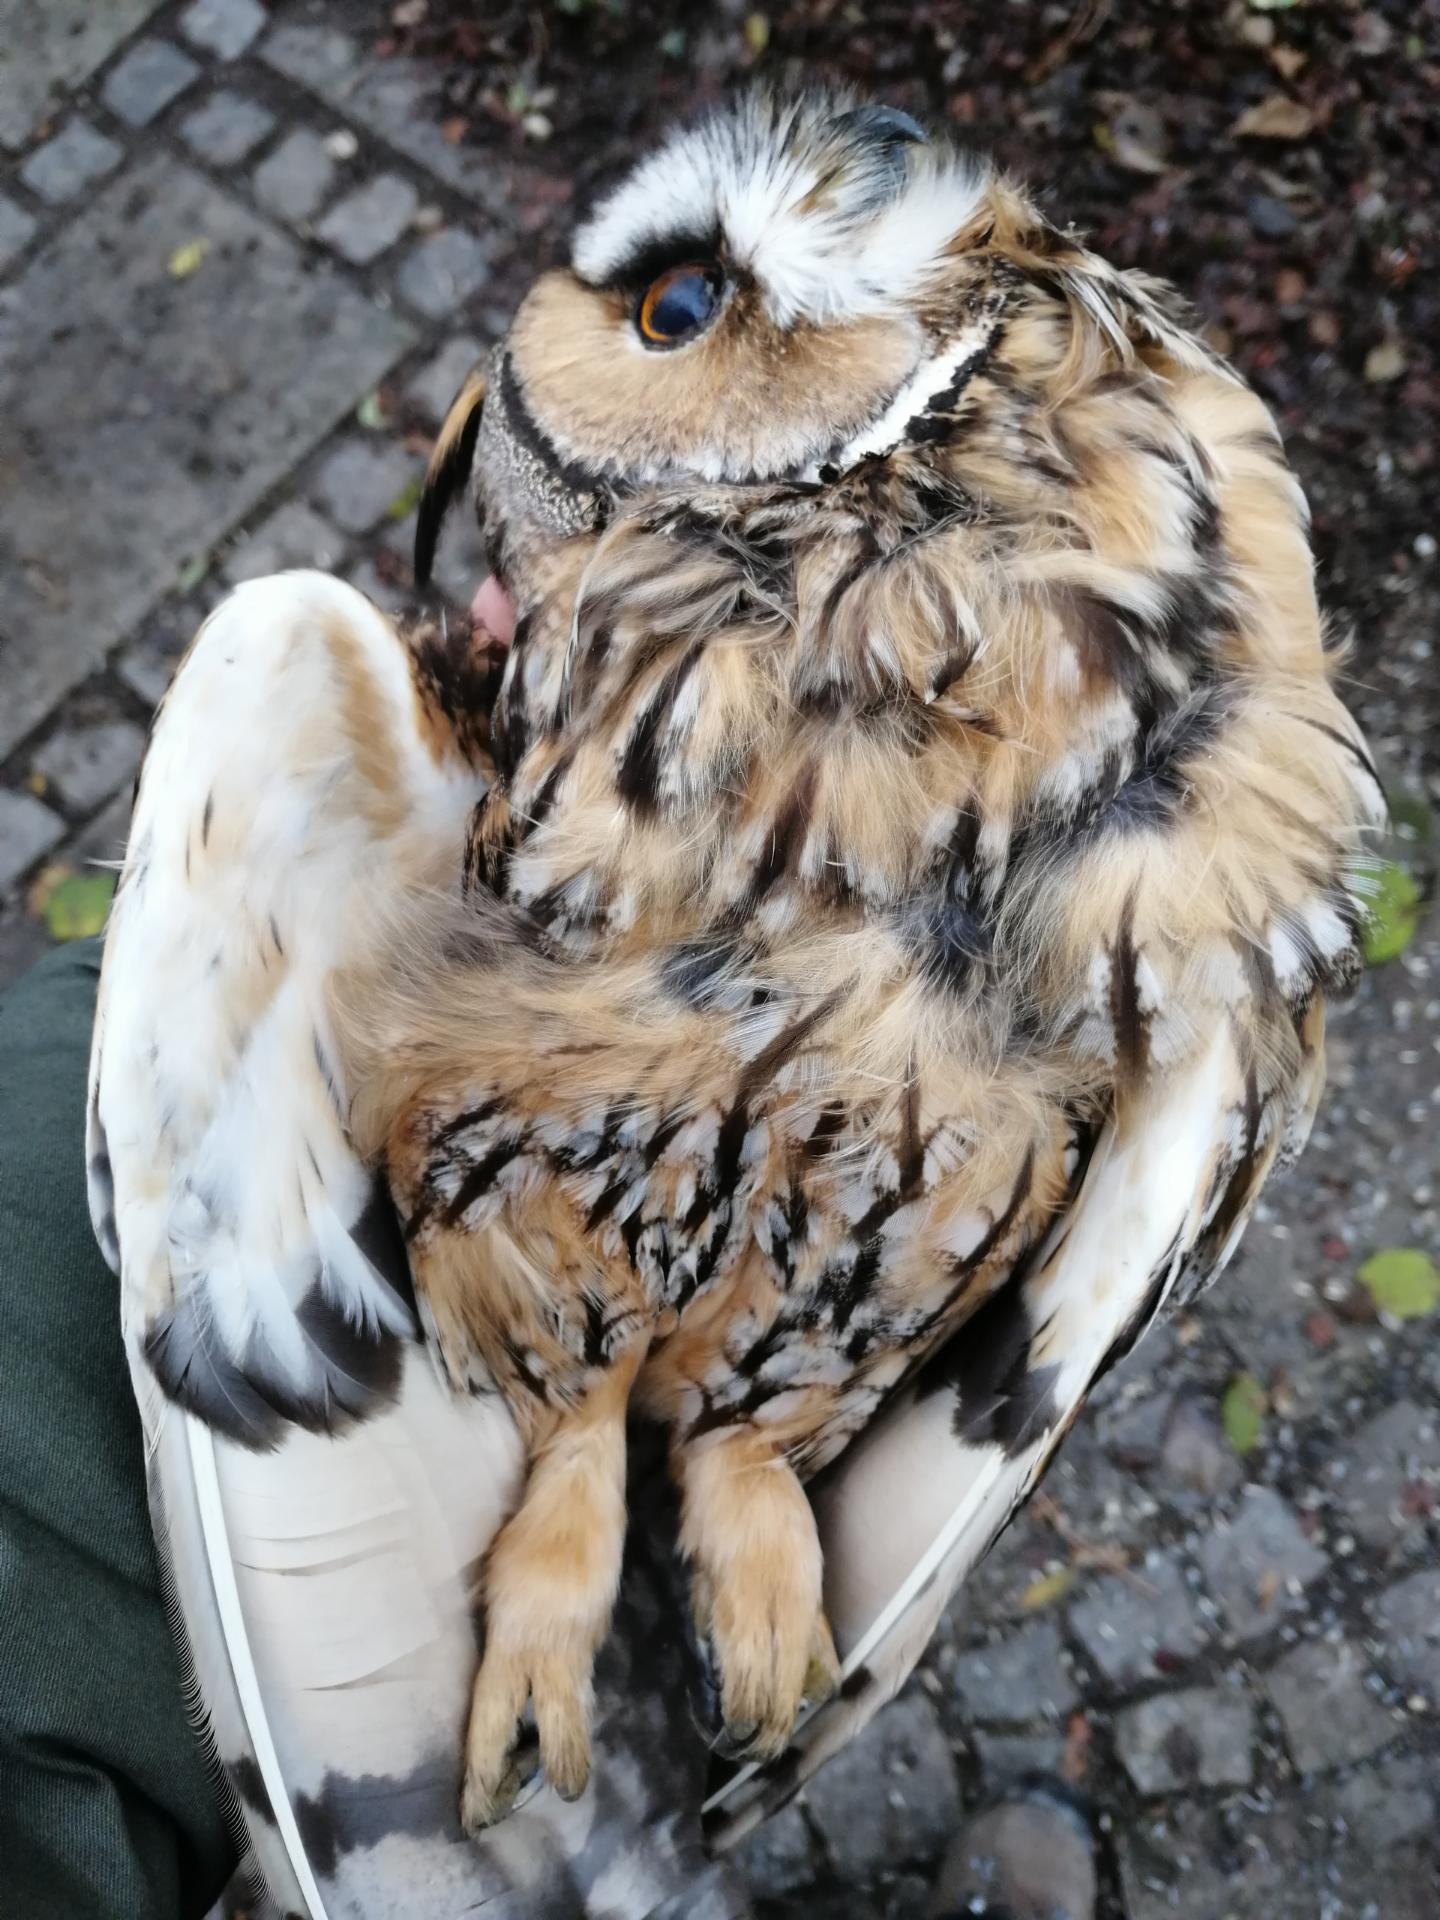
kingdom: Animalia
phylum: Chordata
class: Aves
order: Strigiformes
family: Strigidae
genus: Asio
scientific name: Asio otus
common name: Long-eared owl
